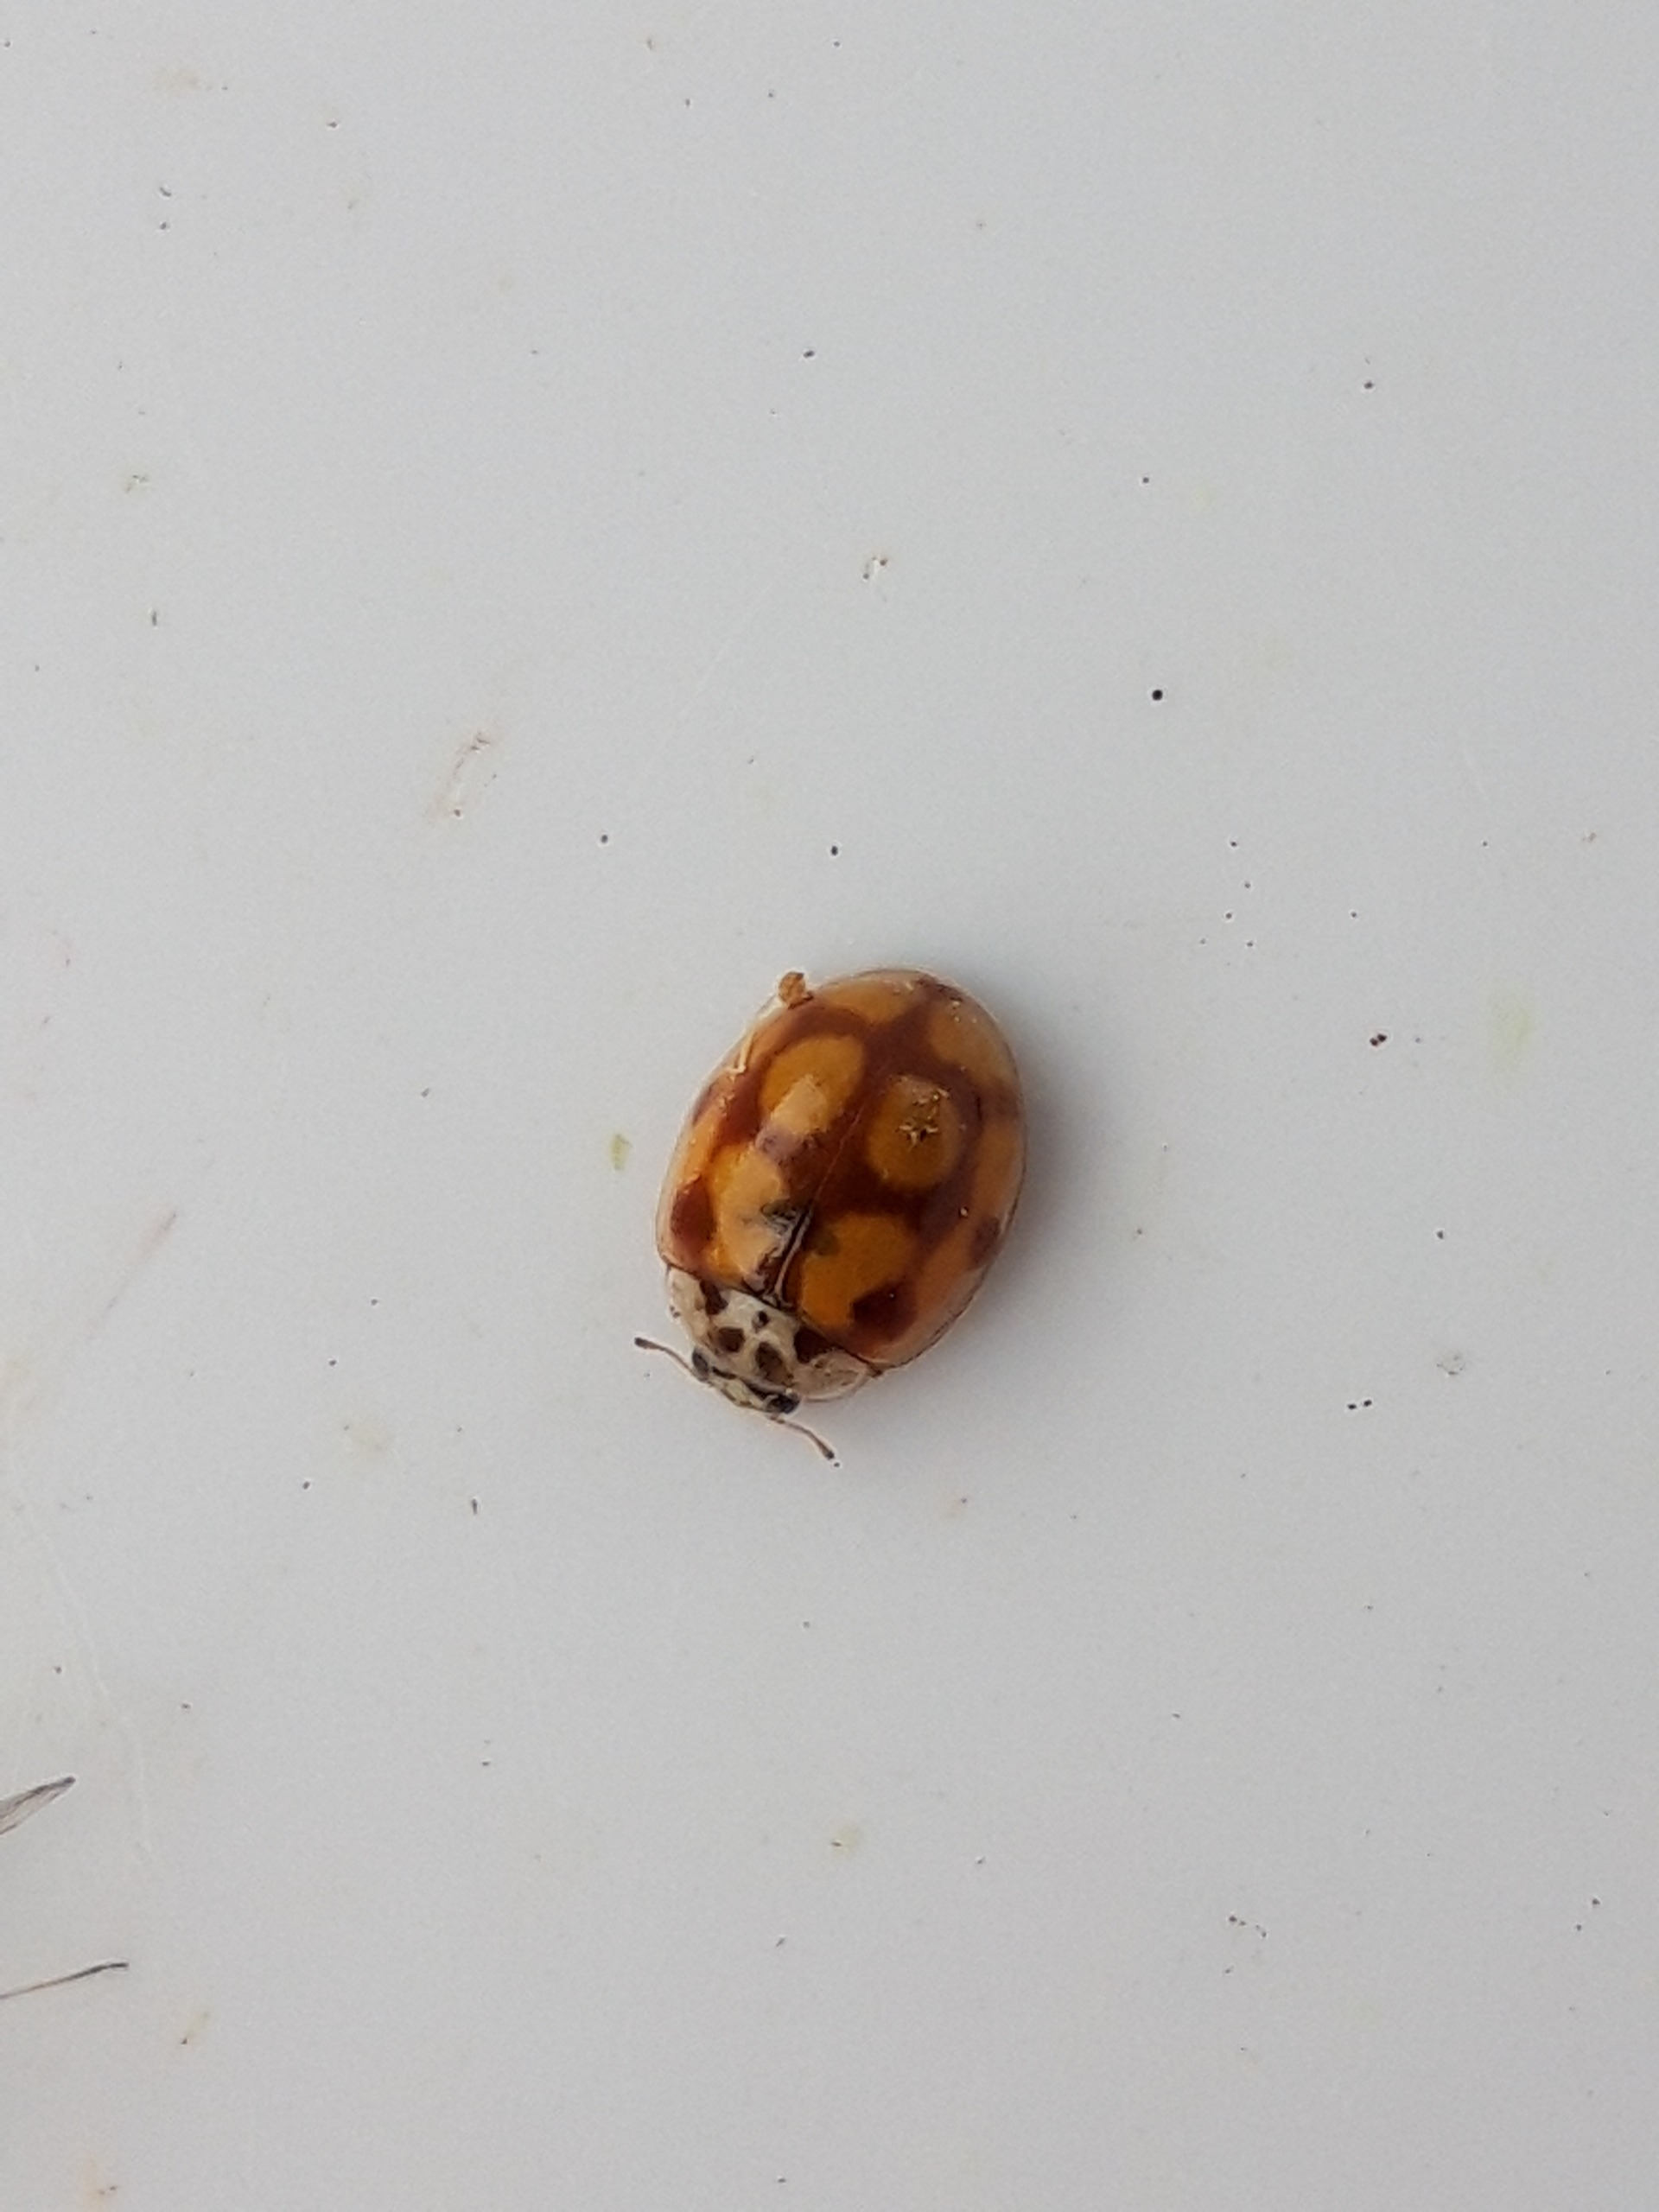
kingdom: Animalia
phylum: Arthropoda
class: Insecta
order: Coleoptera
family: Coccinellidae
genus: Adalia
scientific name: Adalia decempunctata
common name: Tiplettet mariehøne
